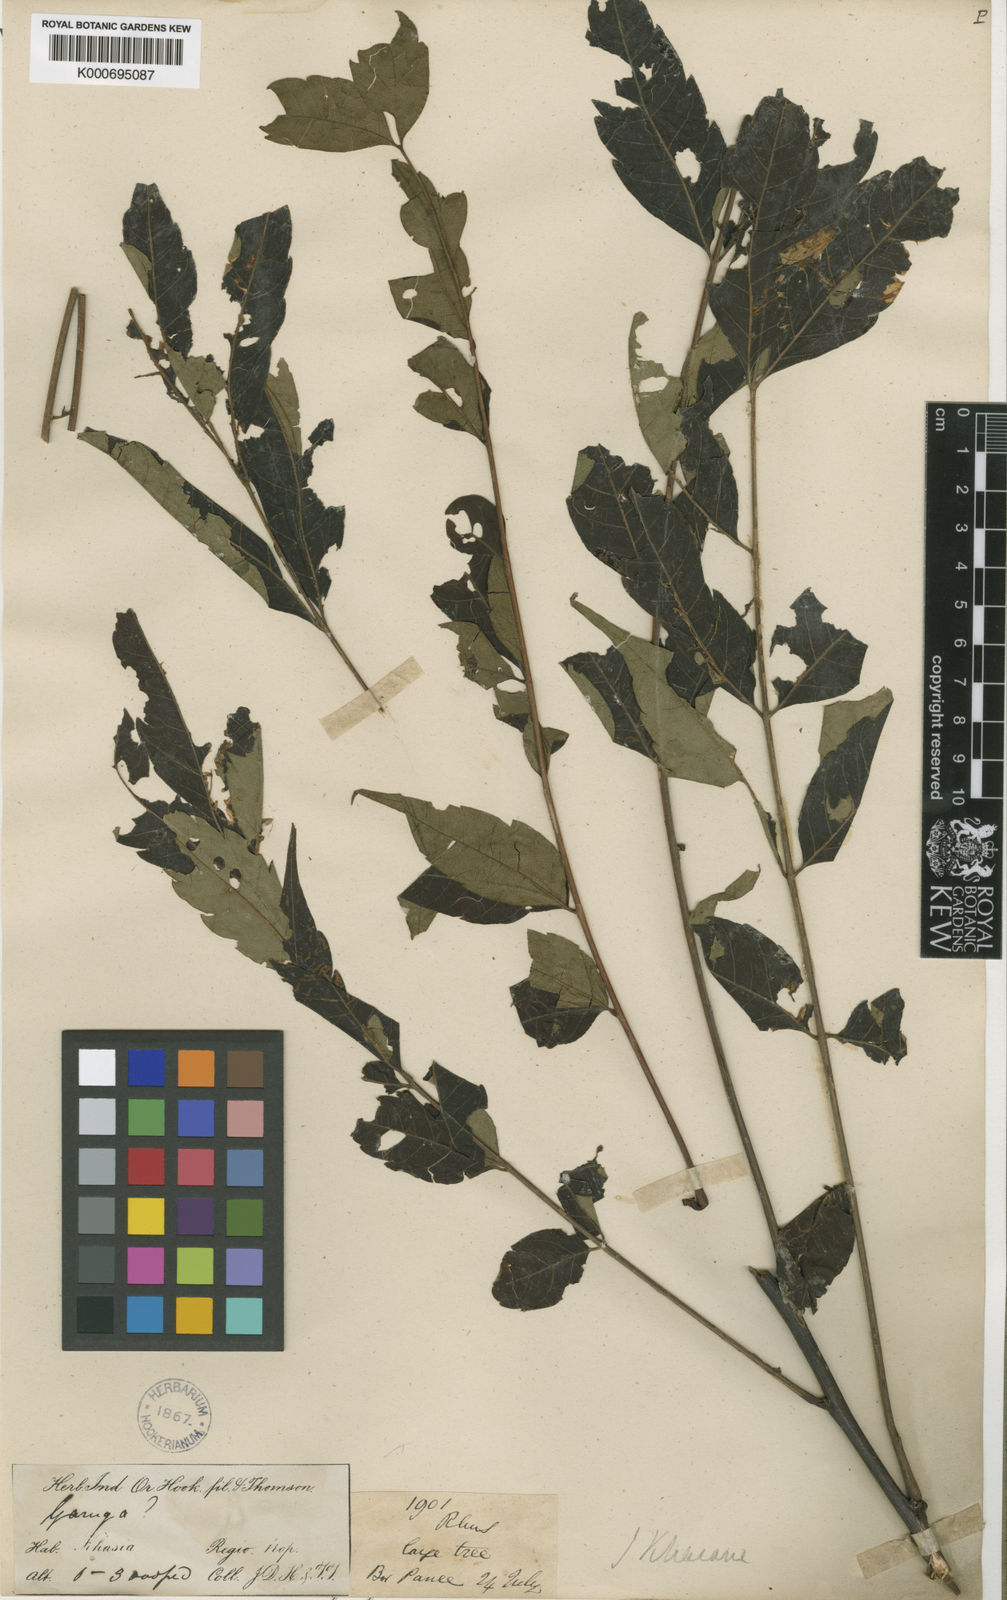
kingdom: Plantae
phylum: Tracheophyta
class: Magnoliopsida
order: Sapindales
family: Anacardiaceae
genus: Toxicodendron
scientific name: Toxicodendron khasianum
